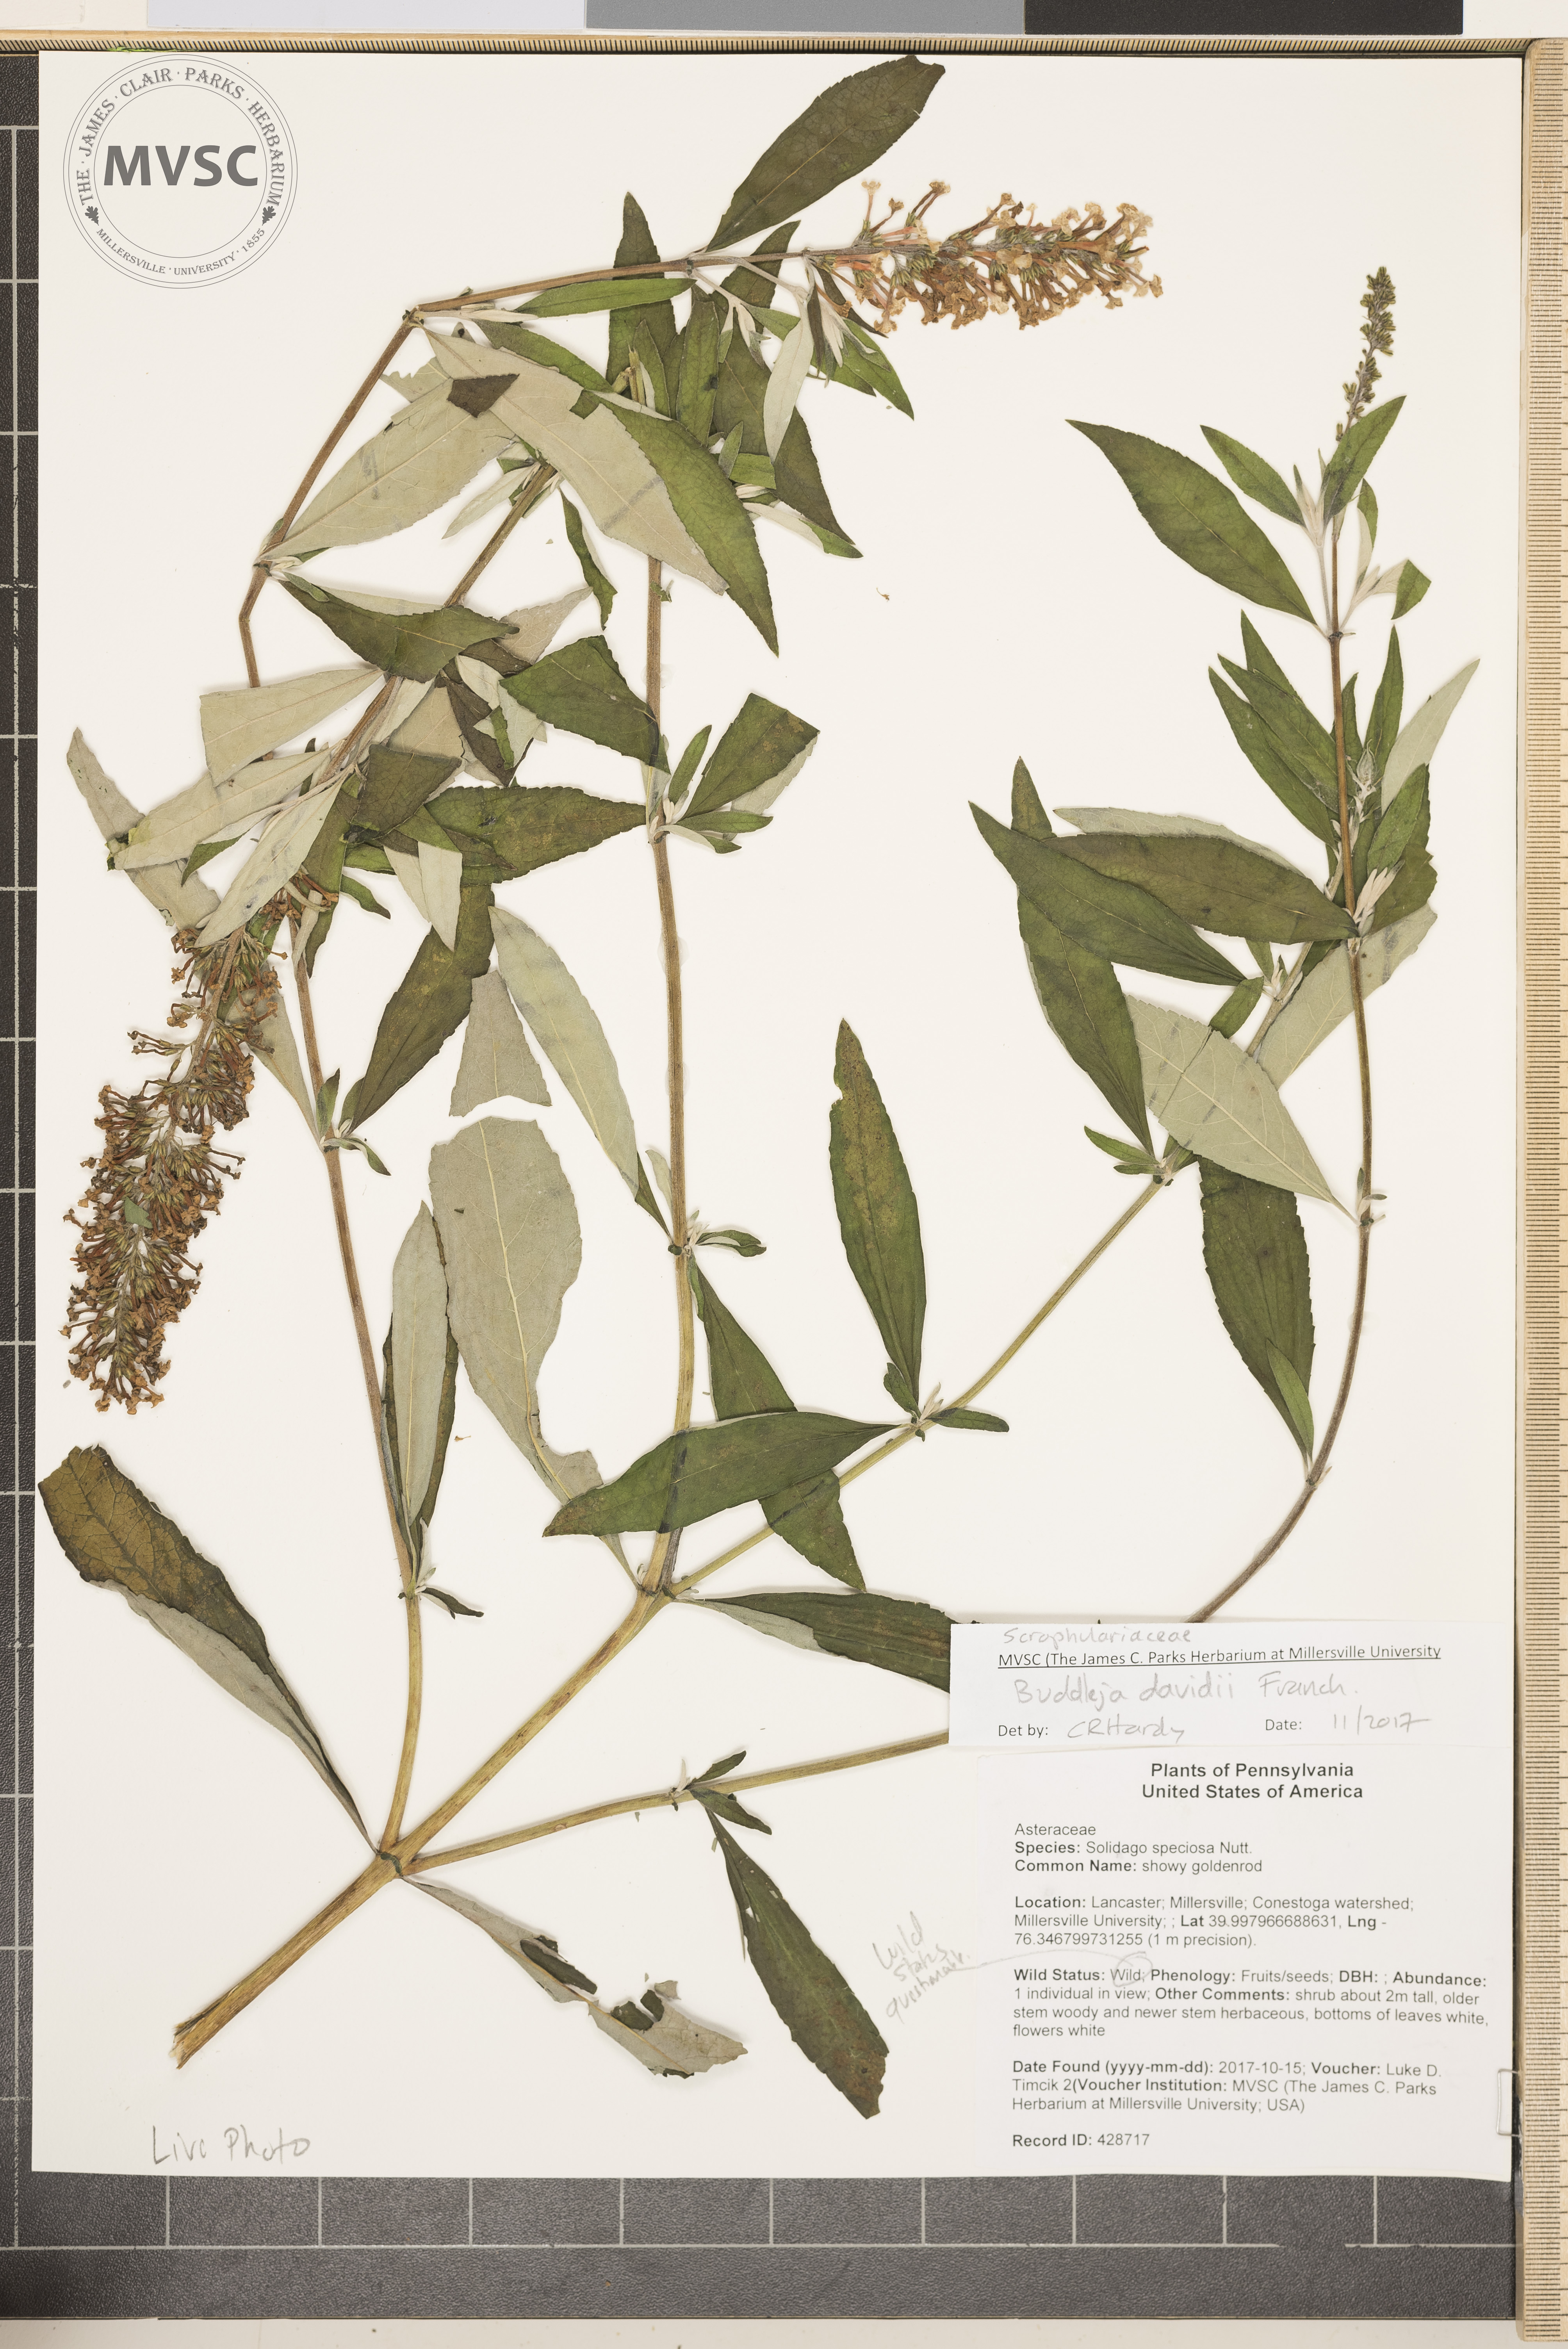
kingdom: Plantae
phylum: Tracheophyta
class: Magnoliopsida
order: Lamiales
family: Scrophulariaceae
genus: Buddleja
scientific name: Buddleja davidii
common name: Butterfly Bush
